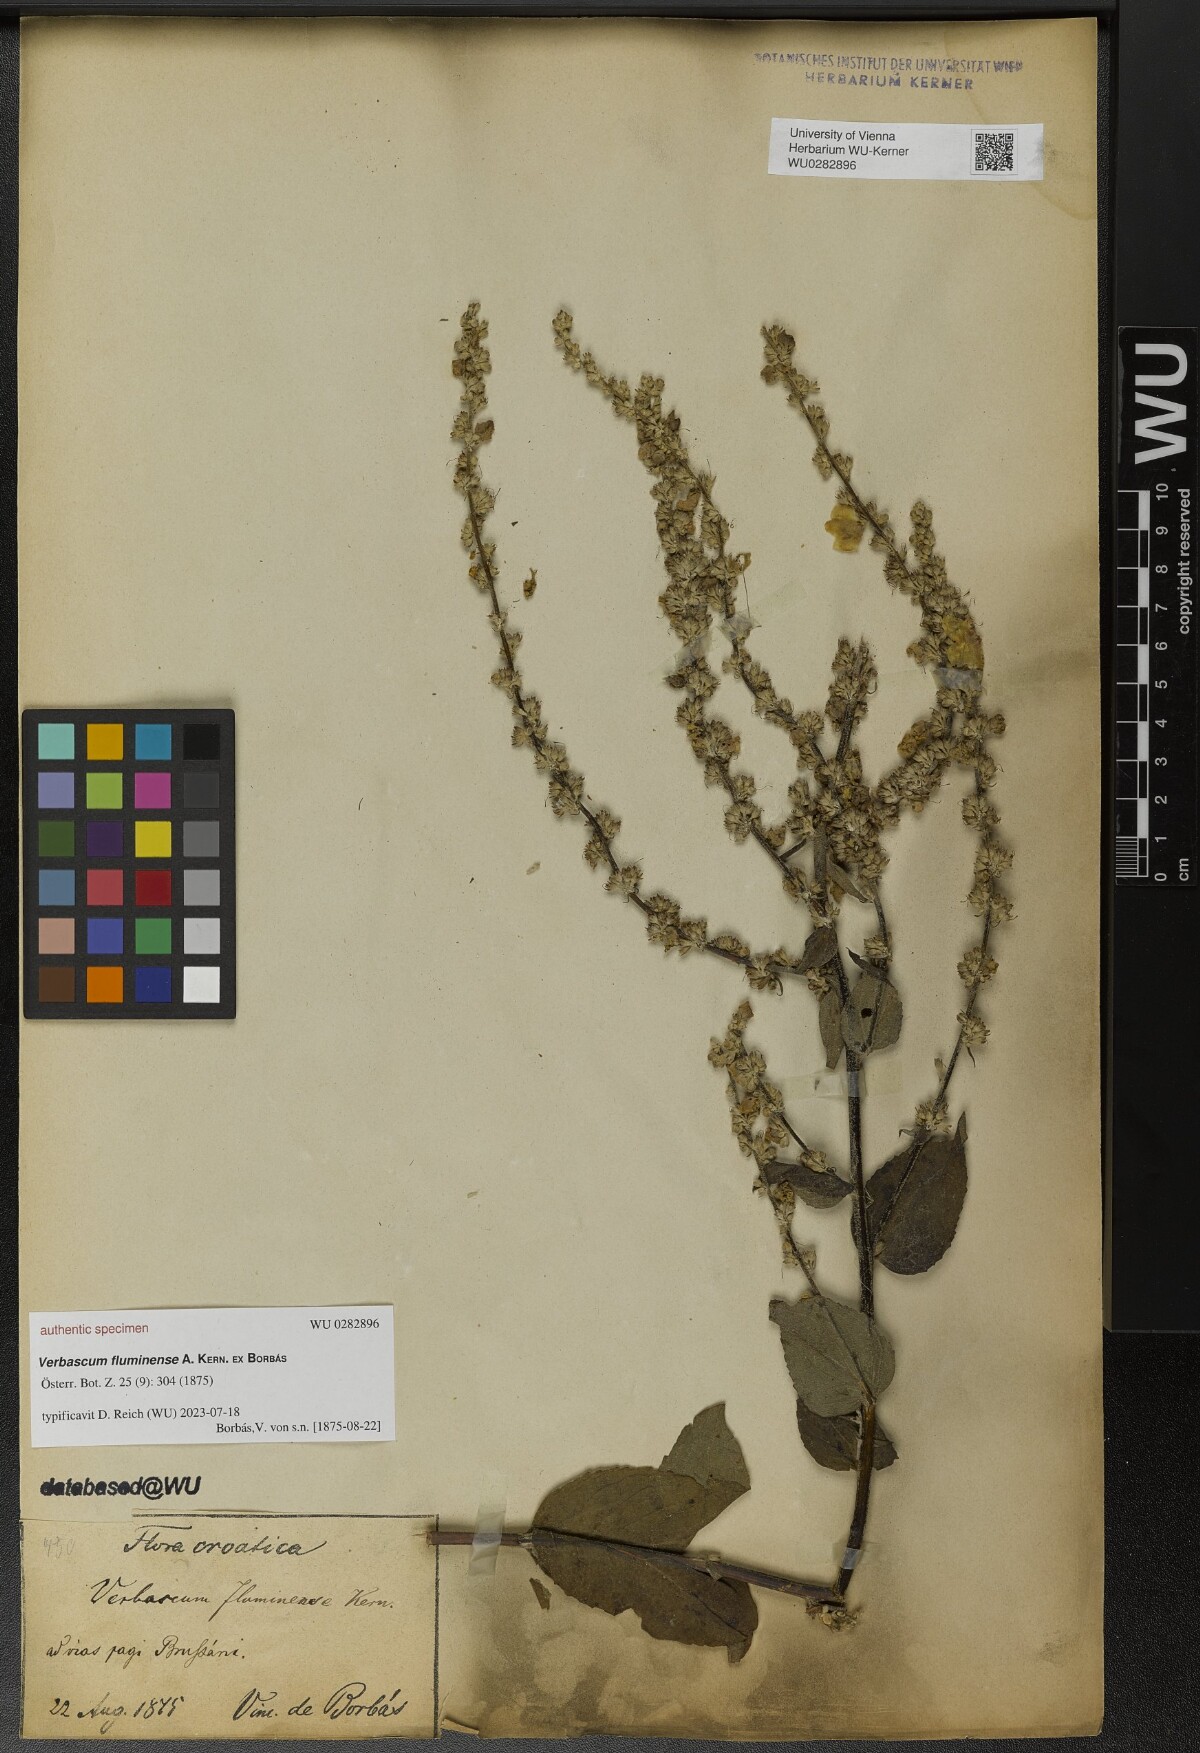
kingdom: Plantae
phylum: Tracheophyta
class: Magnoliopsida
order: Lamiales
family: Scrophulariaceae
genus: Verbascum
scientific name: Verbascum fluminense
